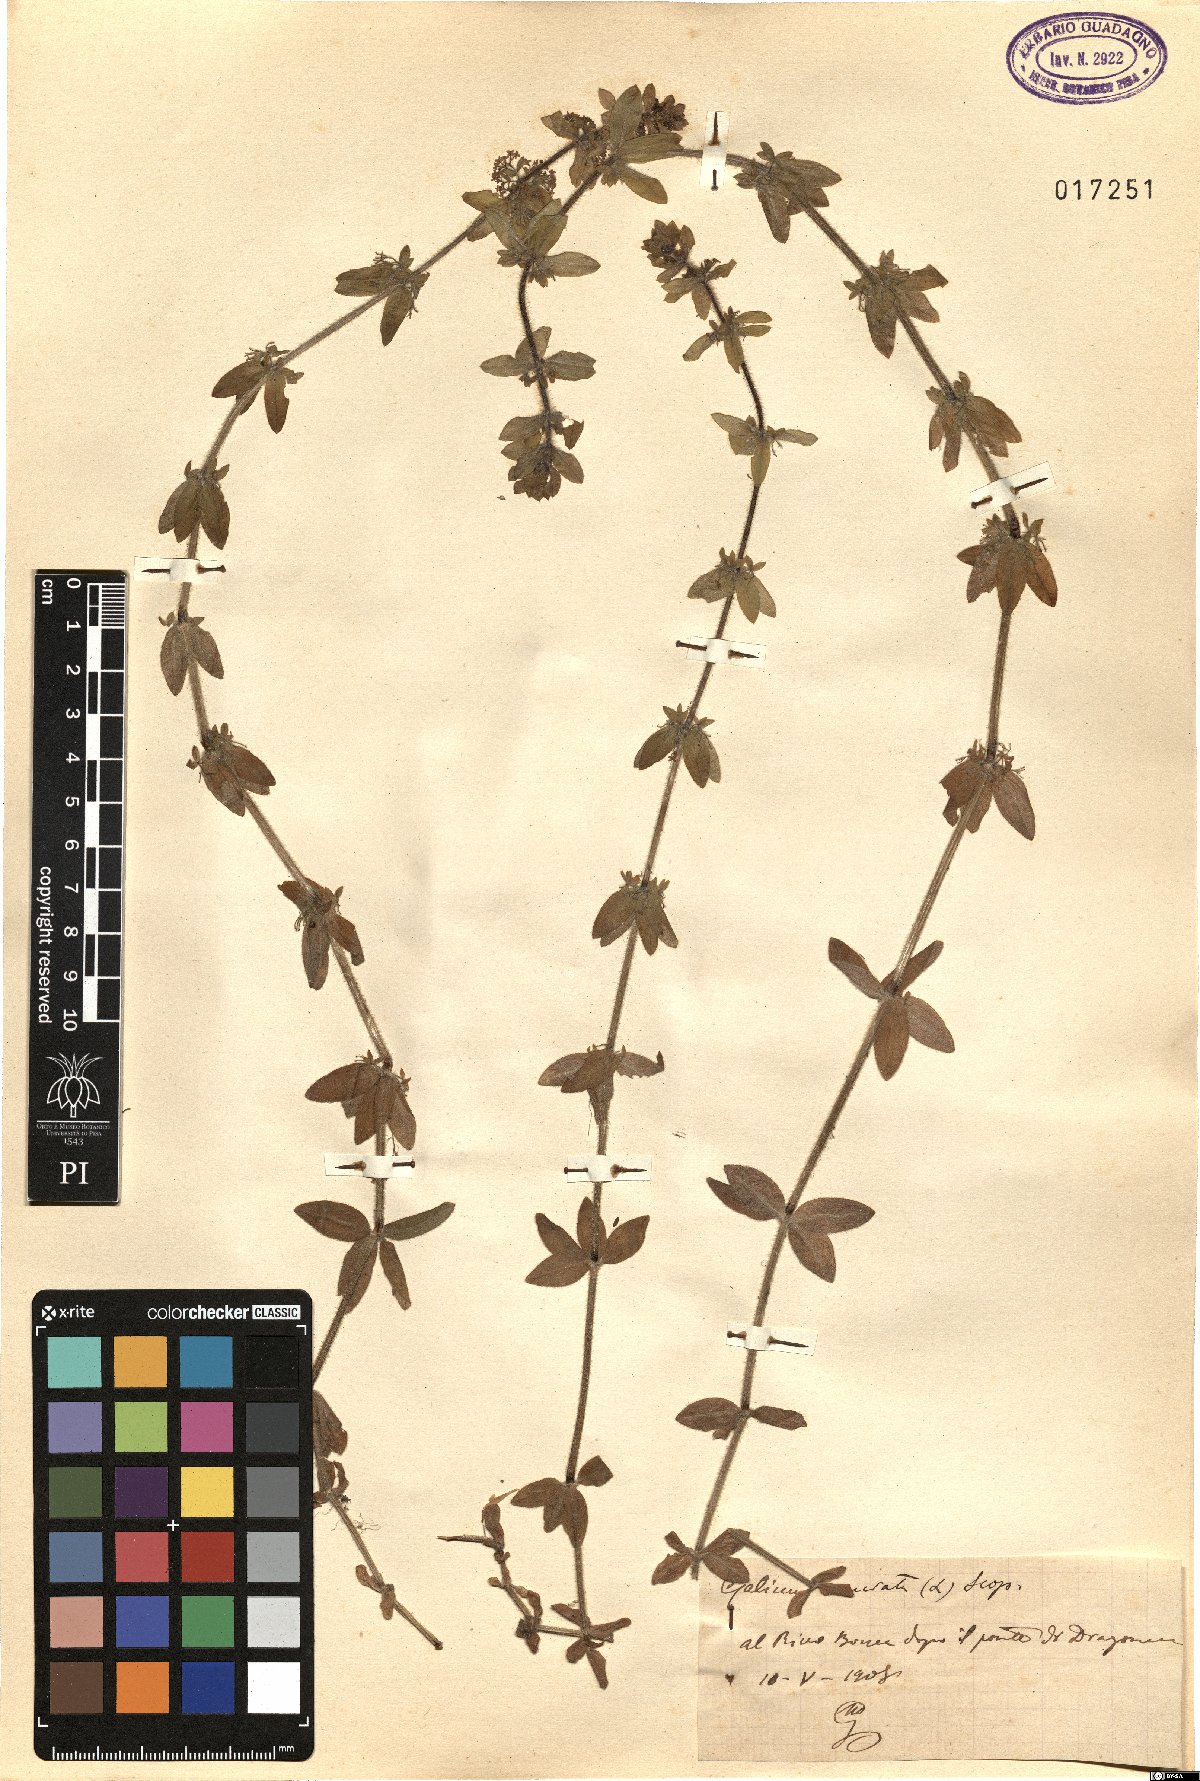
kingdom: Plantae
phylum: Tracheophyta
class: Magnoliopsida
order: Gentianales
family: Rubiaceae
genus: Cruciata
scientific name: Cruciata laevipes
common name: Crosswort
